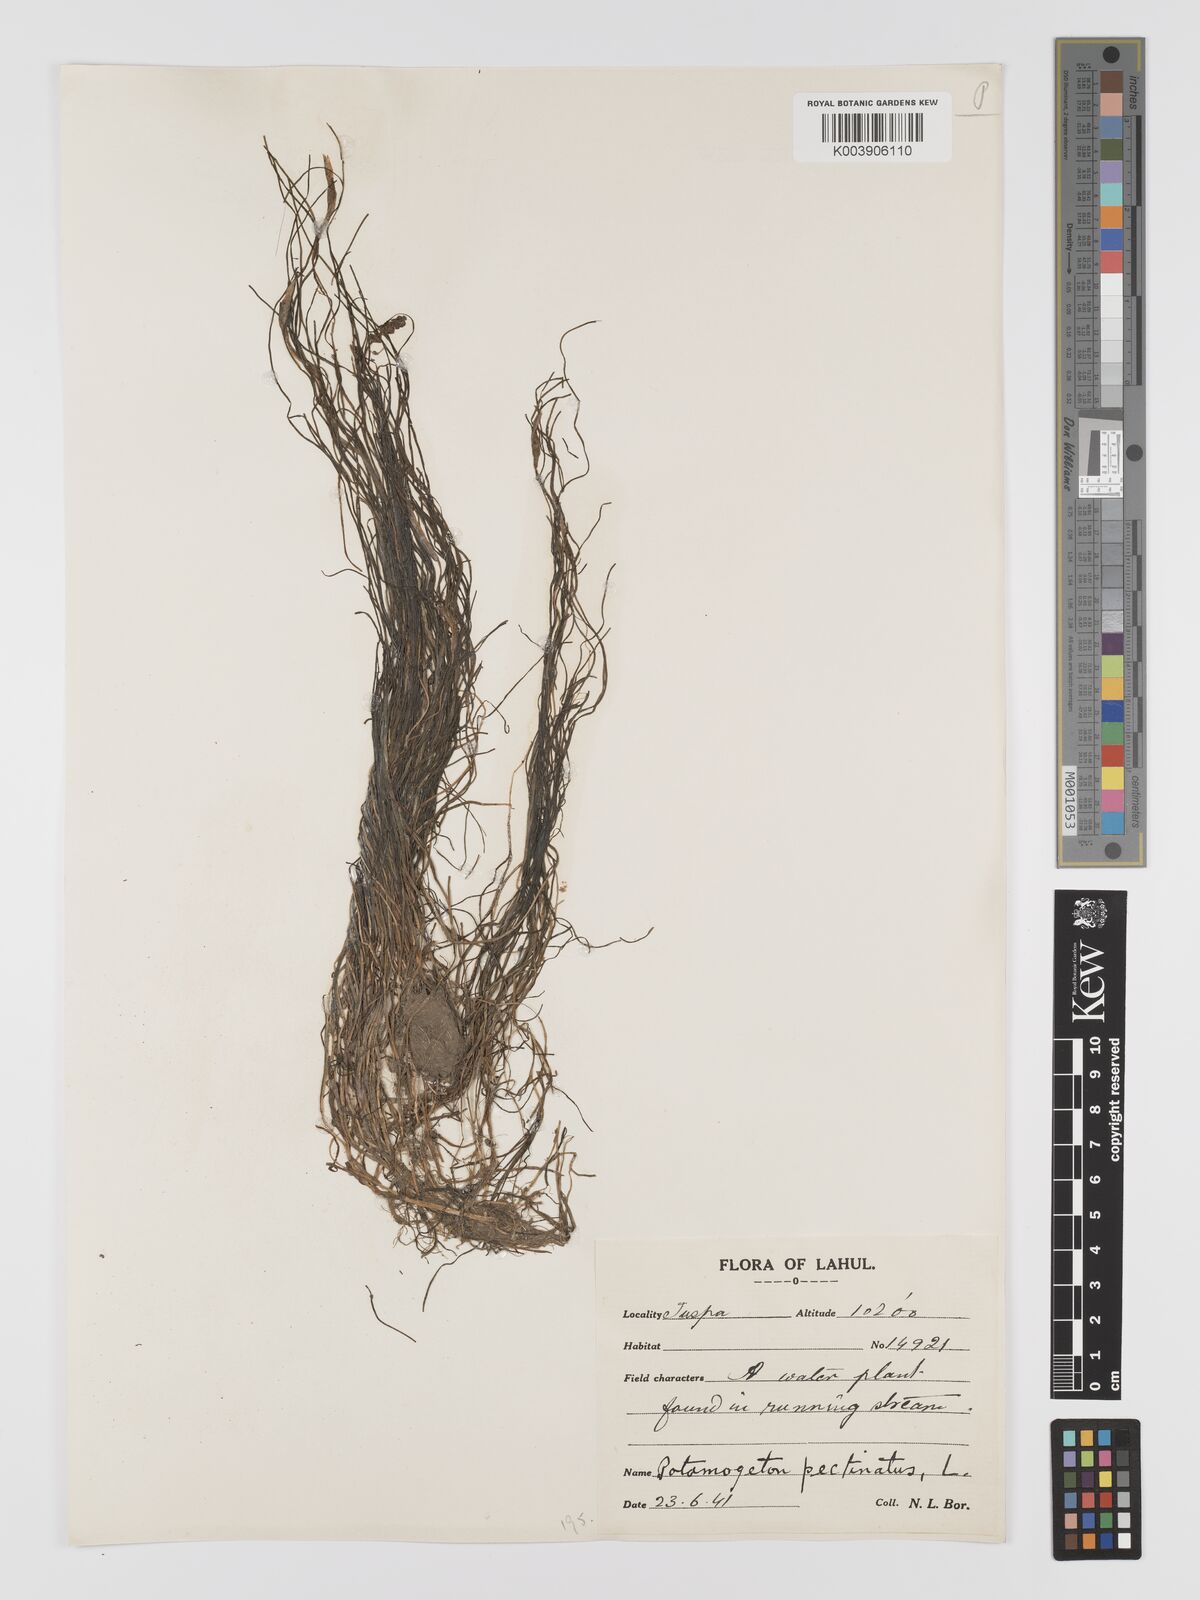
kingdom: Plantae
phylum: Tracheophyta
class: Liliopsida
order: Alismatales
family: Potamogetonaceae
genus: Stuckenia
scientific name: Stuckenia pectinata
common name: Sago pondweed
